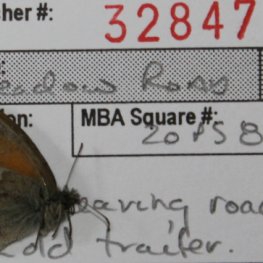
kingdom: Animalia
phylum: Arthropoda
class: Insecta
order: Lepidoptera
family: Nymphalidae
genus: Coenonympha
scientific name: Coenonympha tullia
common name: Large Heath
